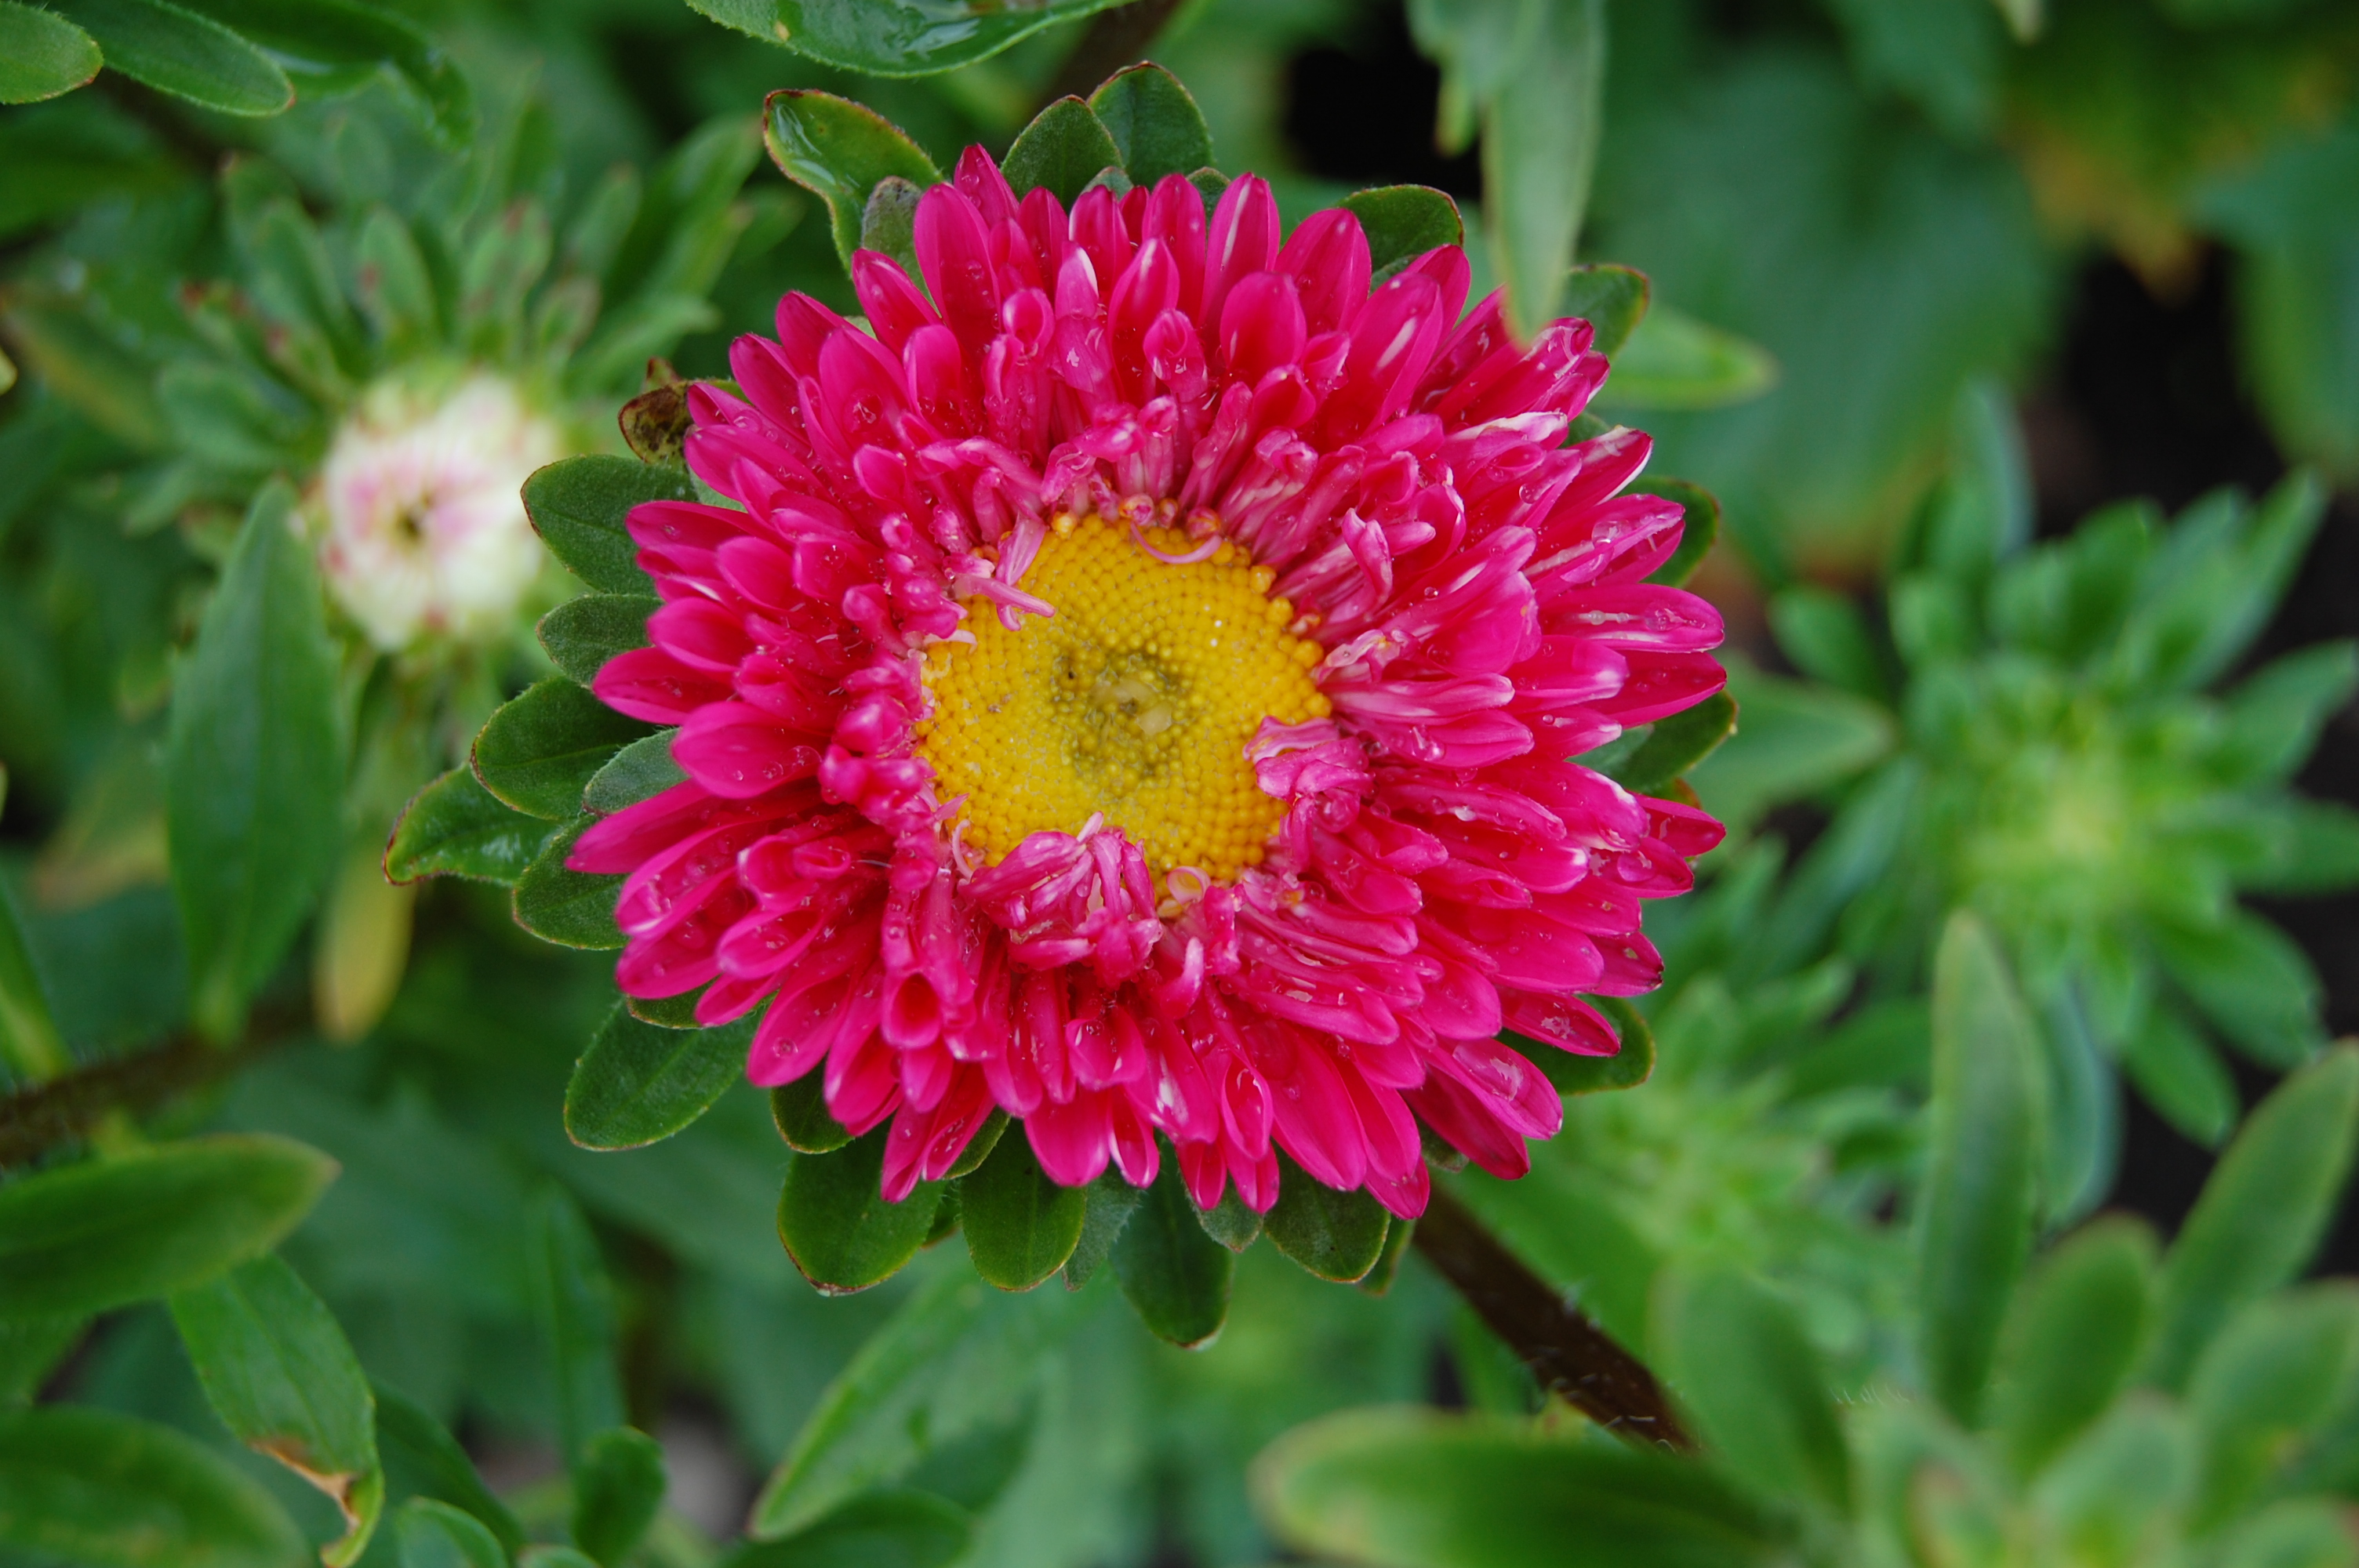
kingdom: Plantae
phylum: Tracheophyta
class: Magnoliopsida
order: Asterales
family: Asteraceae
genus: Callistephus
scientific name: Callistephus chinensis
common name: China aster
